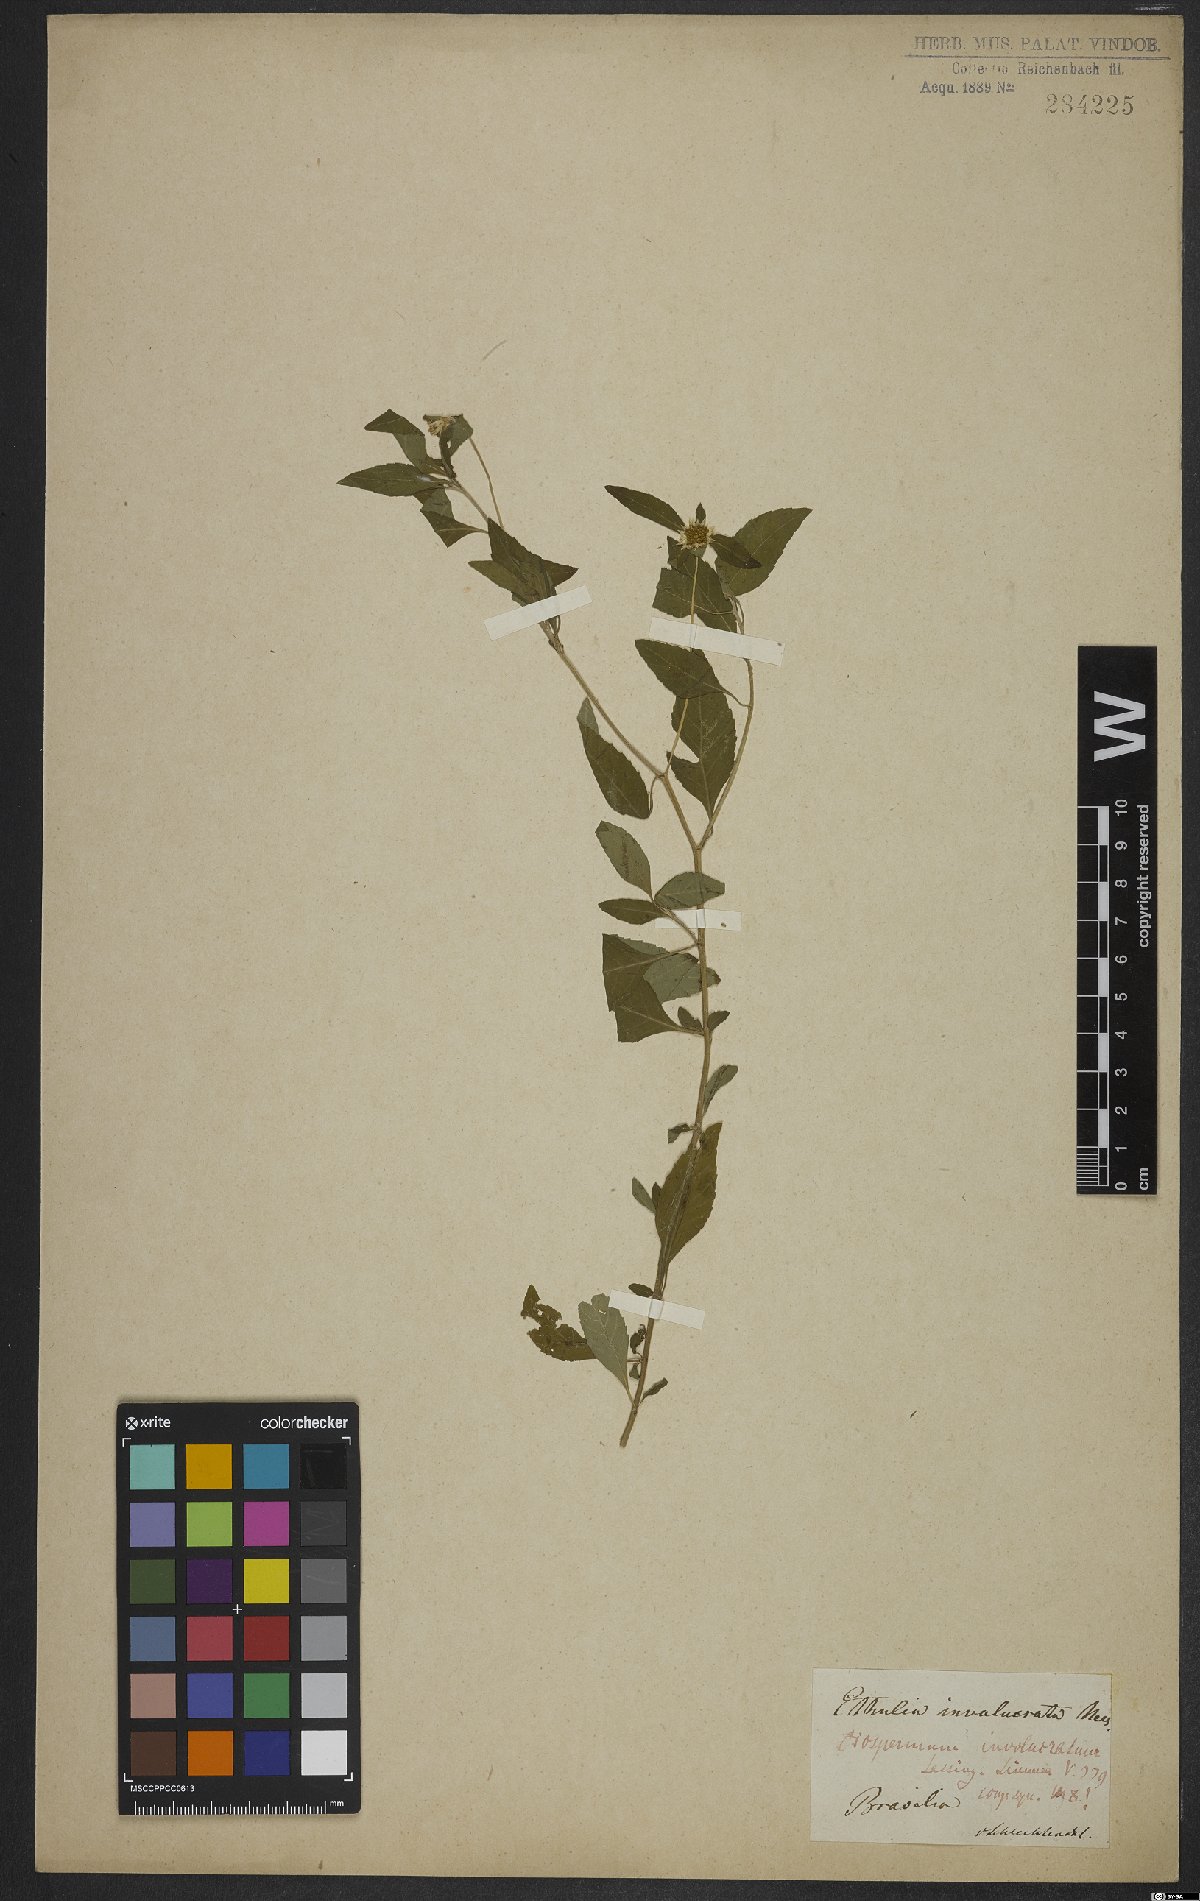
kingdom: Plantae
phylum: Tracheophyta
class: Magnoliopsida
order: Asterales
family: Asteraceae
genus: Centratherum
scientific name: Centratherum repens
